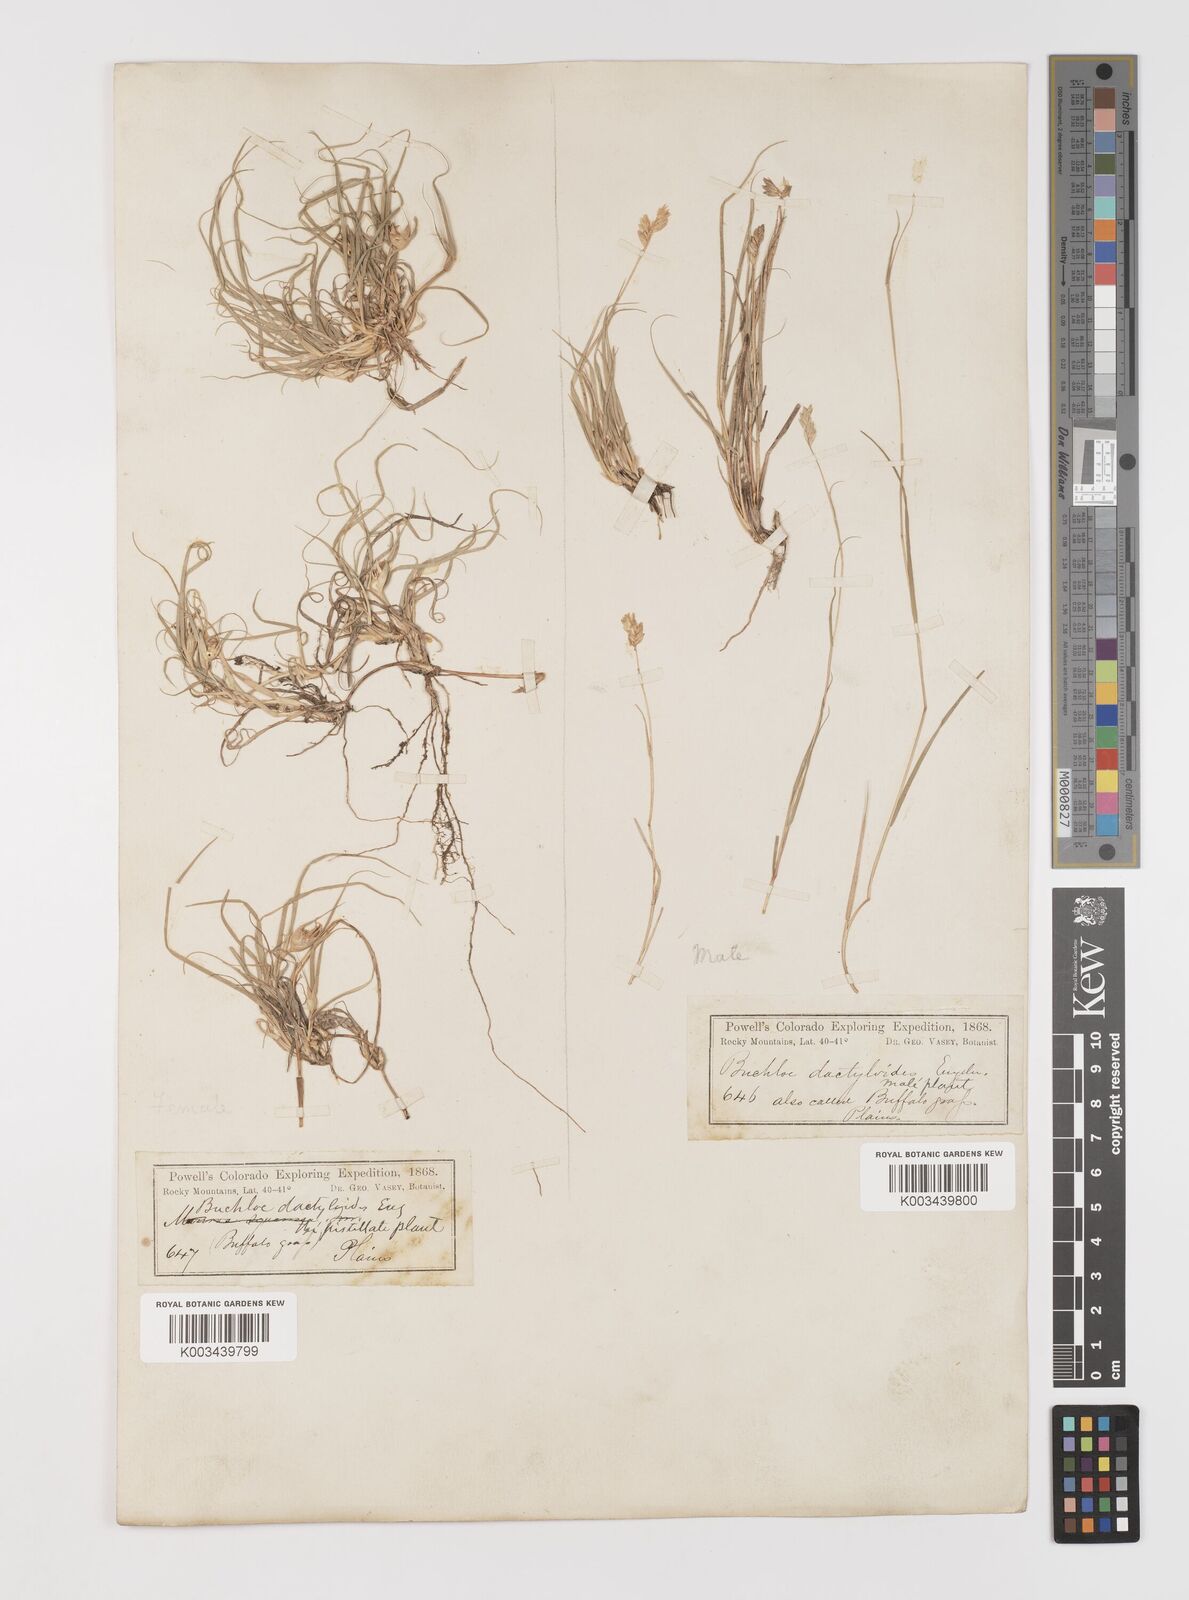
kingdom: Plantae
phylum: Tracheophyta
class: Liliopsida
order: Poales
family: Poaceae
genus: Bouteloua
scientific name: Bouteloua dactyloides
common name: Buffalo grass
